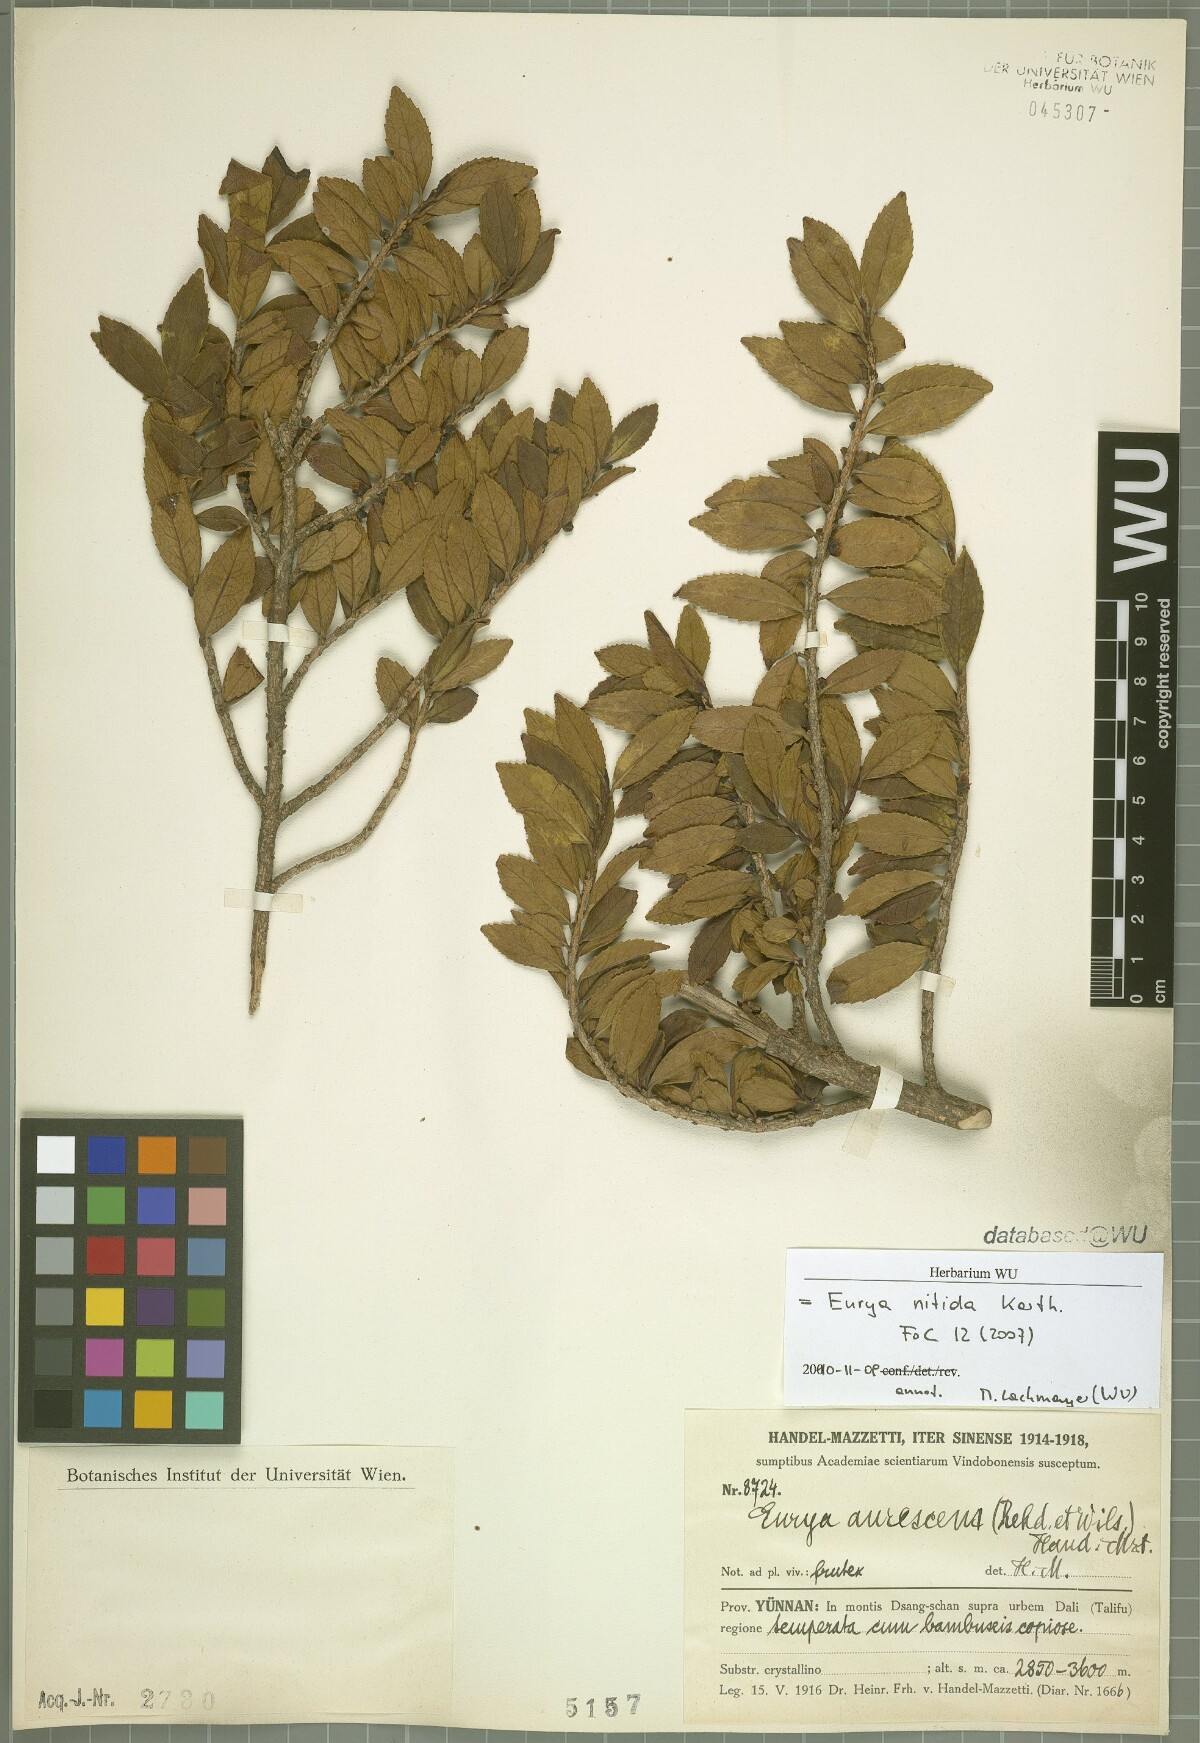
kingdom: Plantae
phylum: Tracheophyta
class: Magnoliopsida
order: Ericales
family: Pentaphylacaceae
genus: Eurya
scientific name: Eurya nitida
